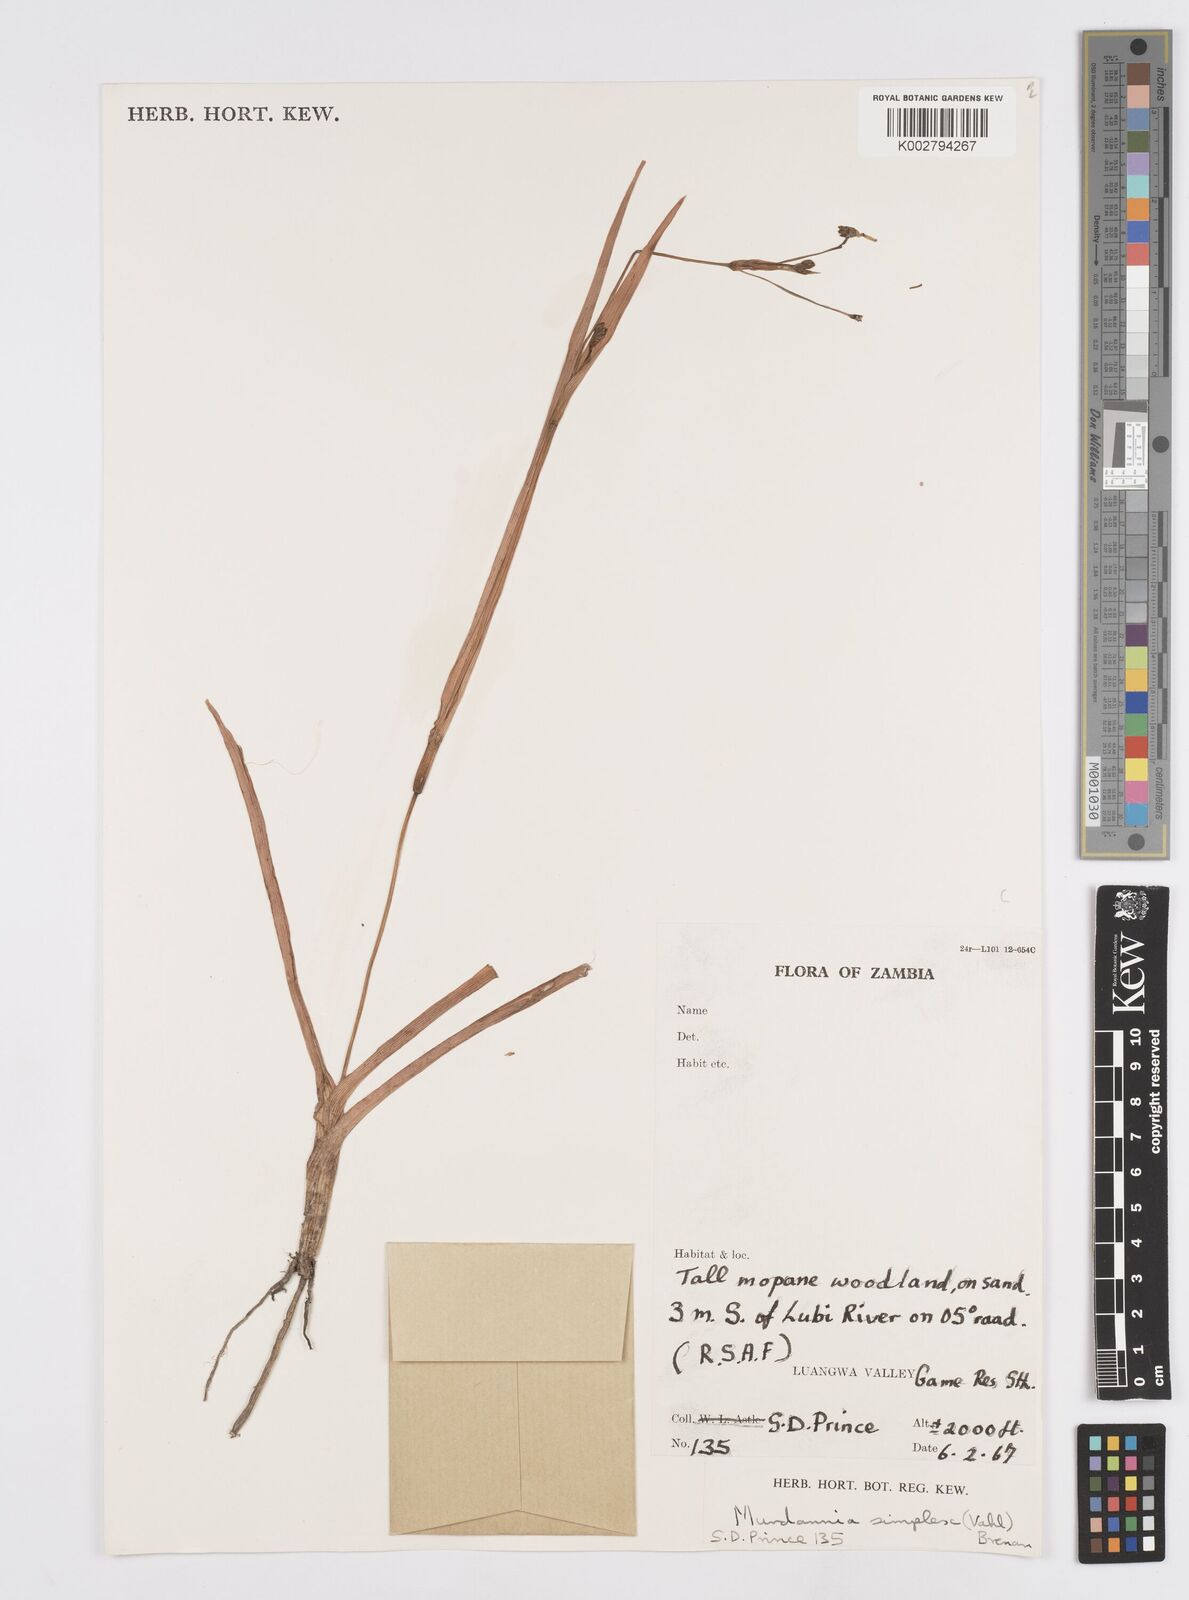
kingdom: Plantae
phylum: Tracheophyta
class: Liliopsida
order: Commelinales
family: Commelinaceae
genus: Murdannia
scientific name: Murdannia simplex
